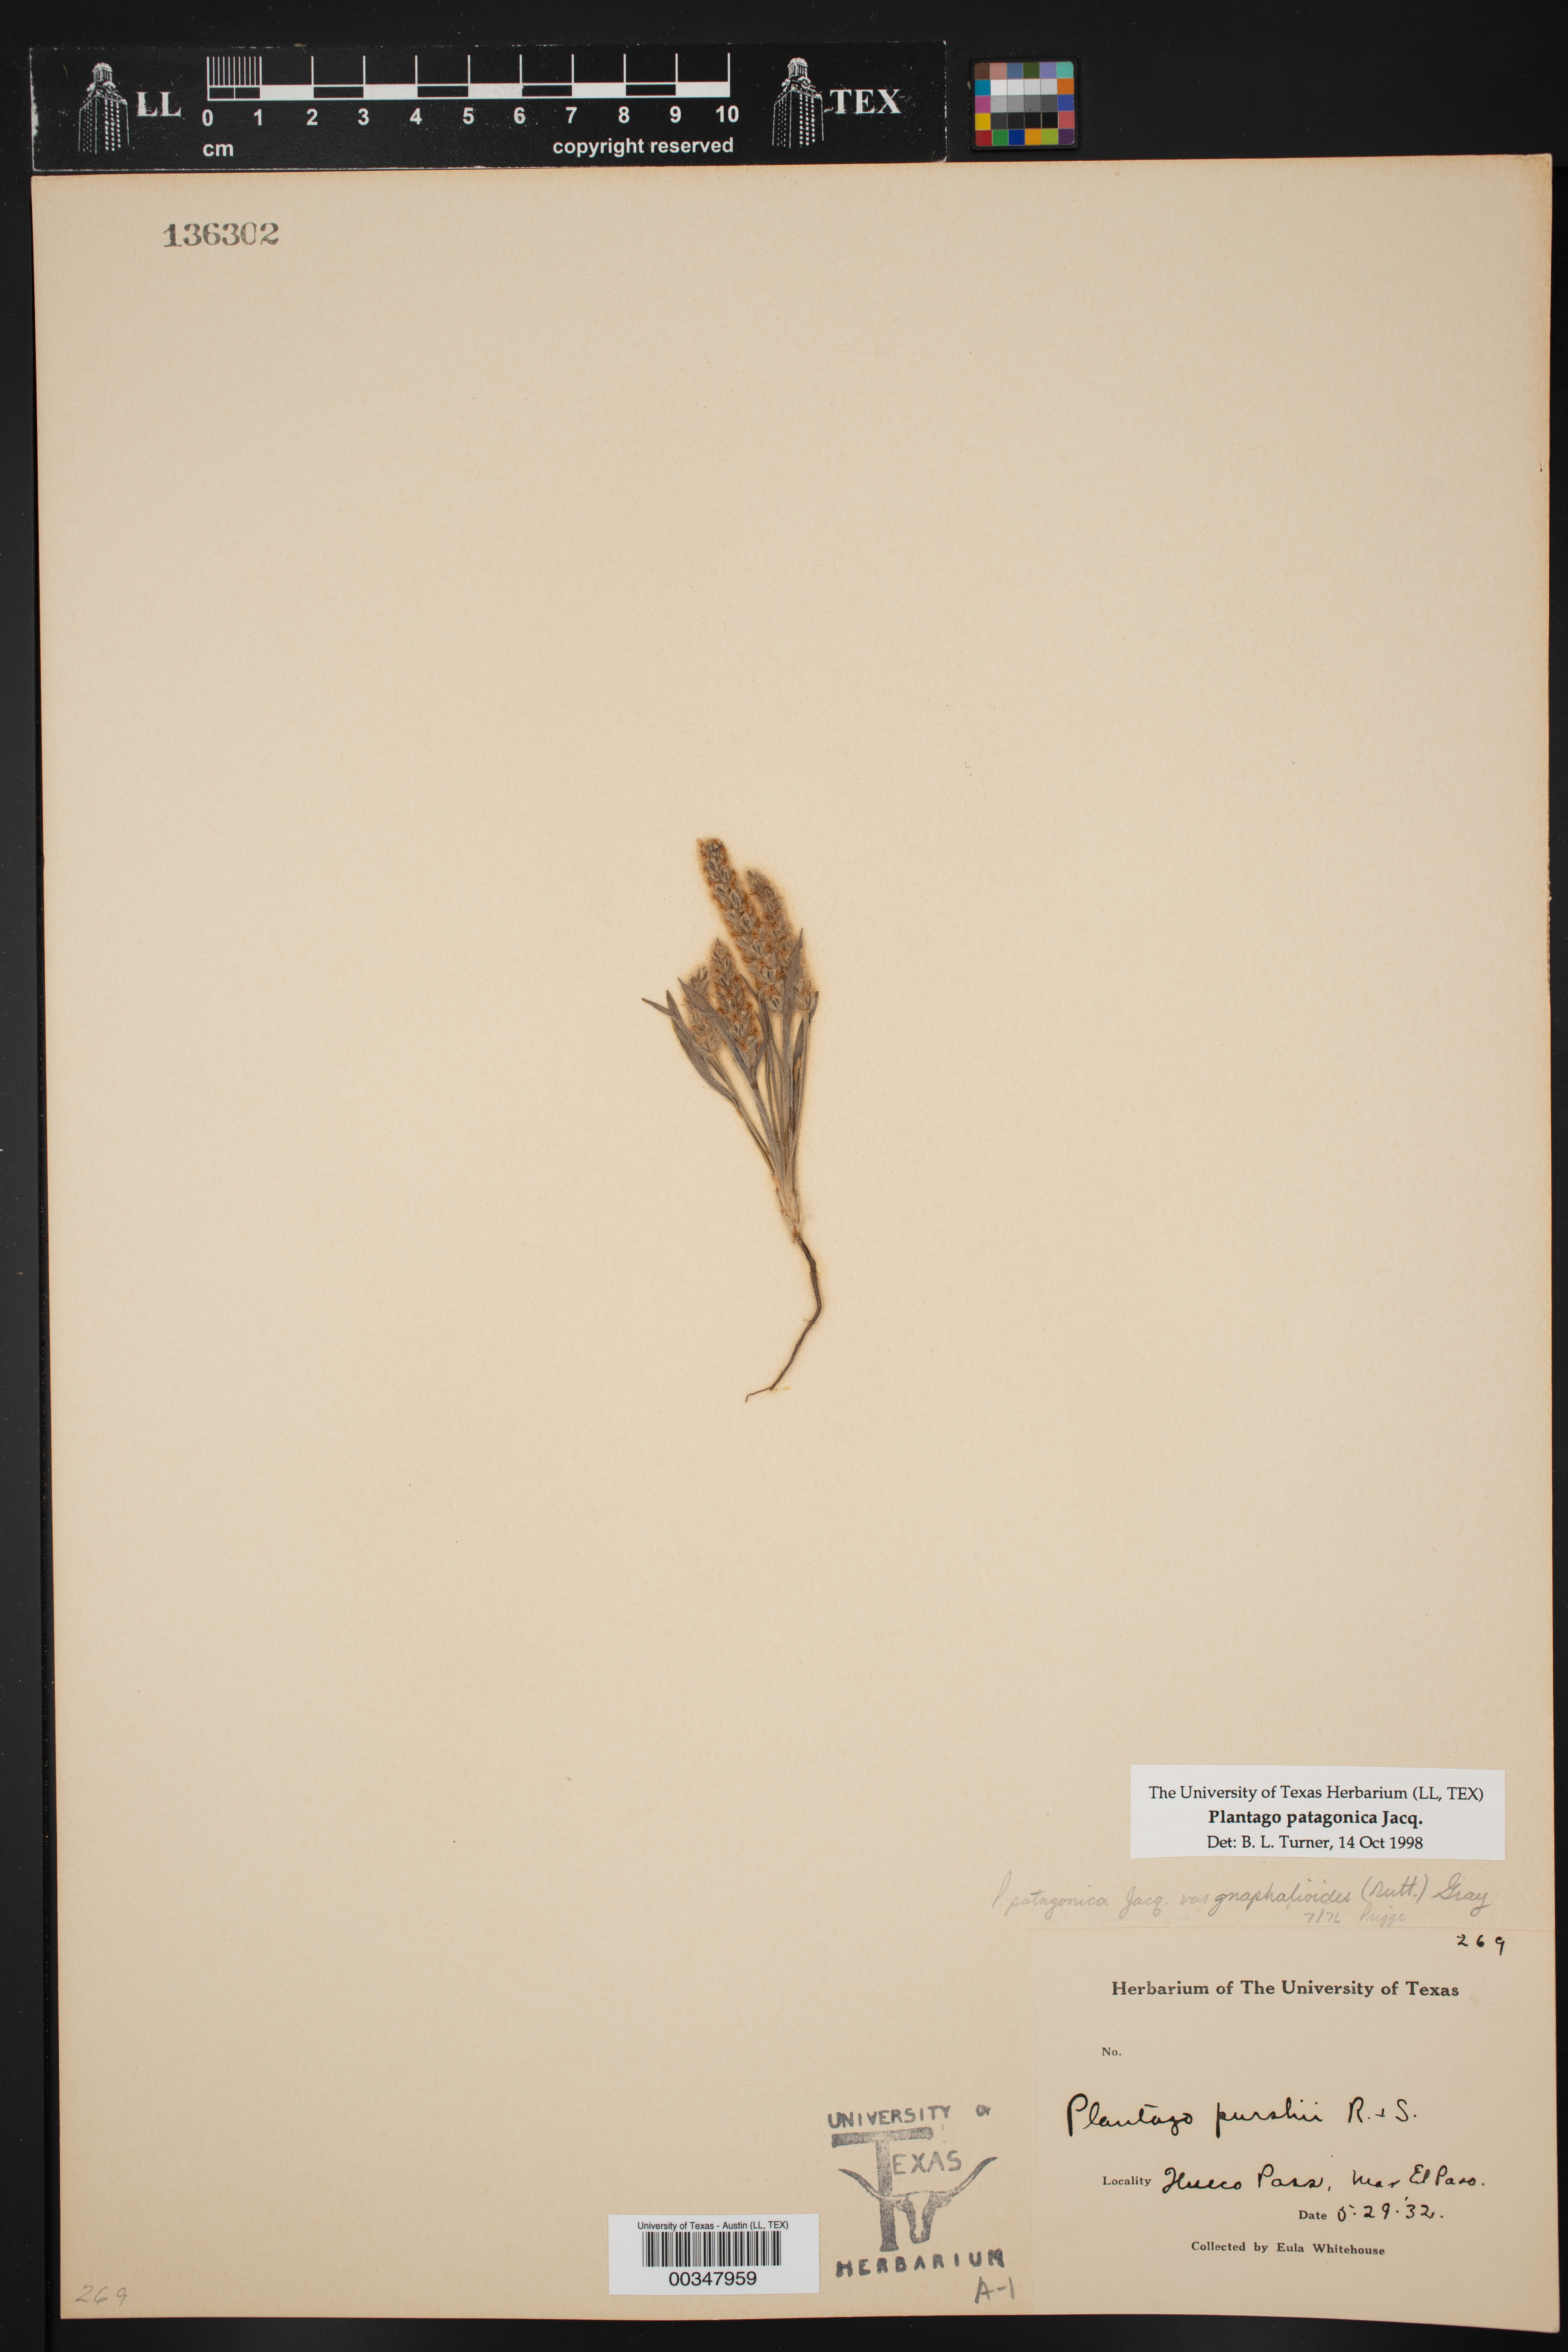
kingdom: Plantae
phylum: Tracheophyta
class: Magnoliopsida
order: Lamiales
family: Plantaginaceae
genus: Plantago
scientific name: Plantago patagonica
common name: Patagonia indian-wheat
